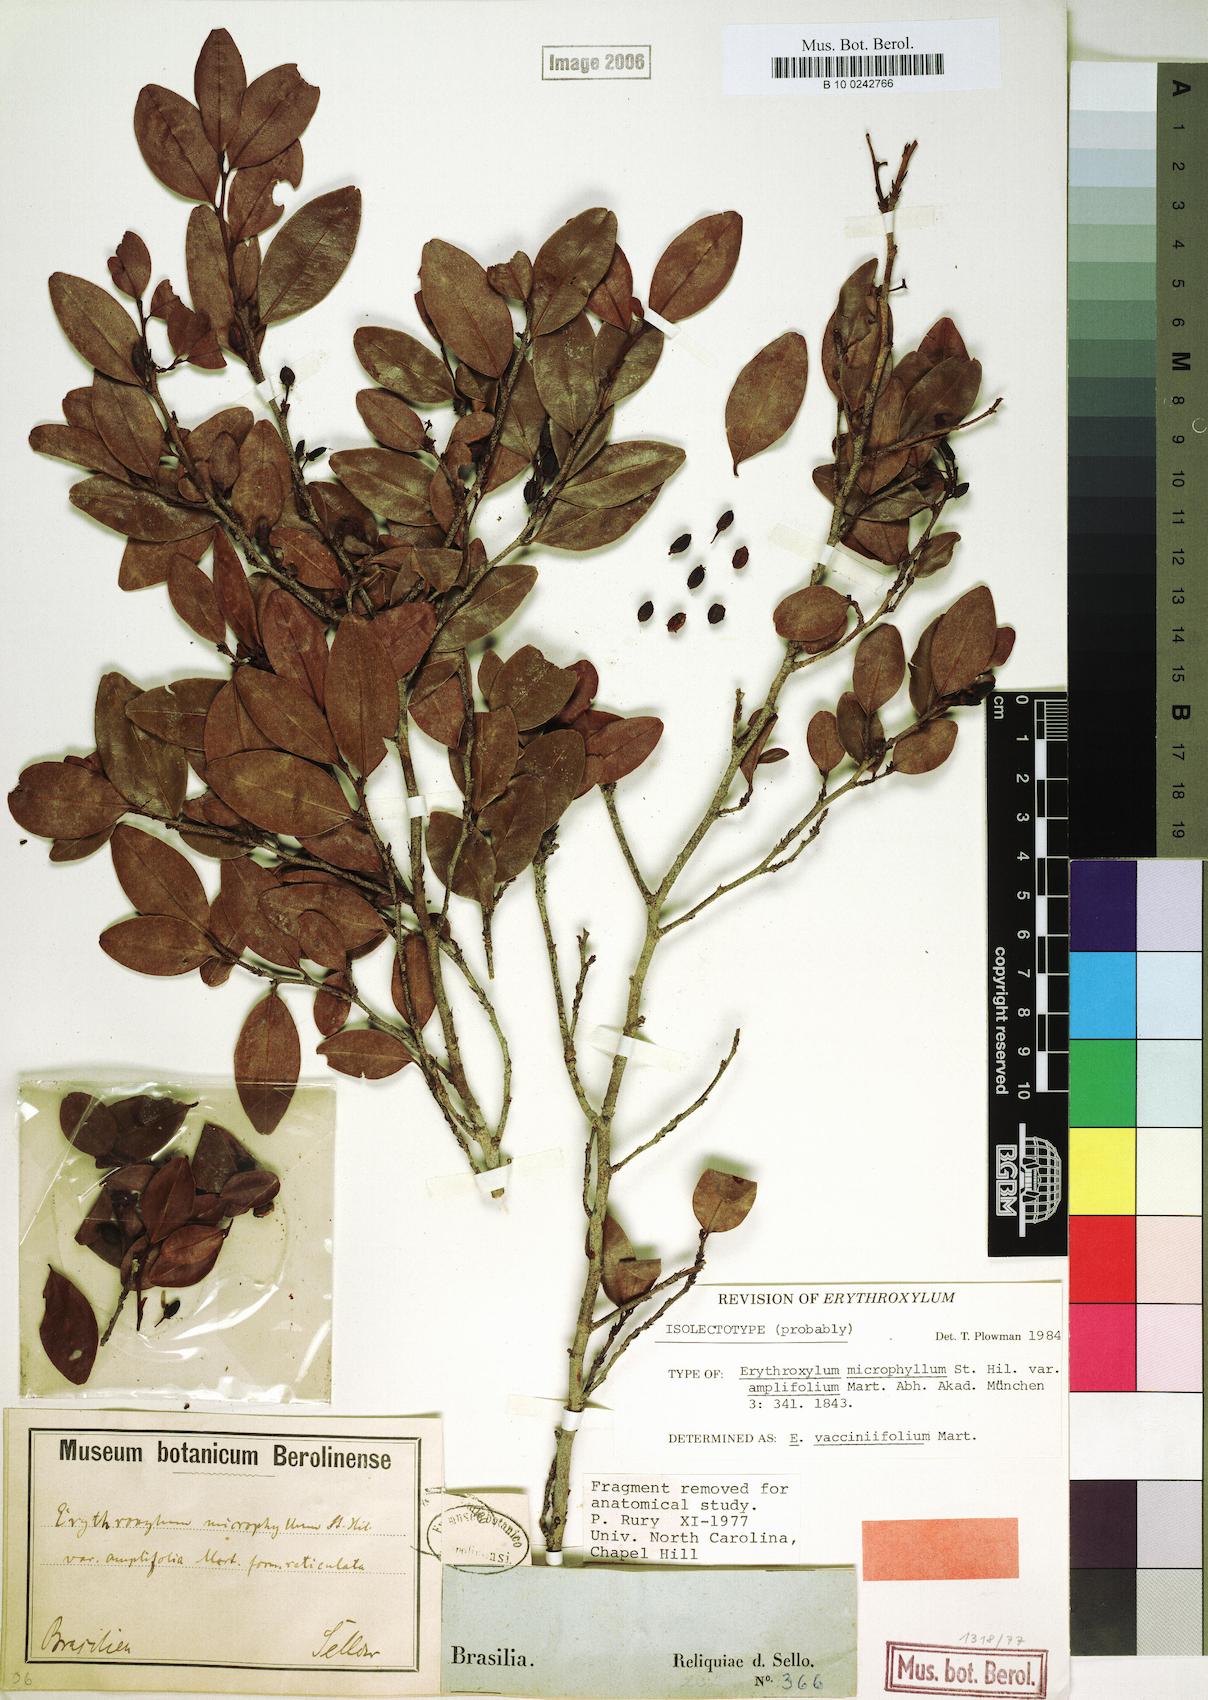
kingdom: Plantae
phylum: Tracheophyta
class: Magnoliopsida
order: Malpighiales
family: Erythroxylaceae
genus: Erythroxylum
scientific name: Erythroxylum vaccinifolium
